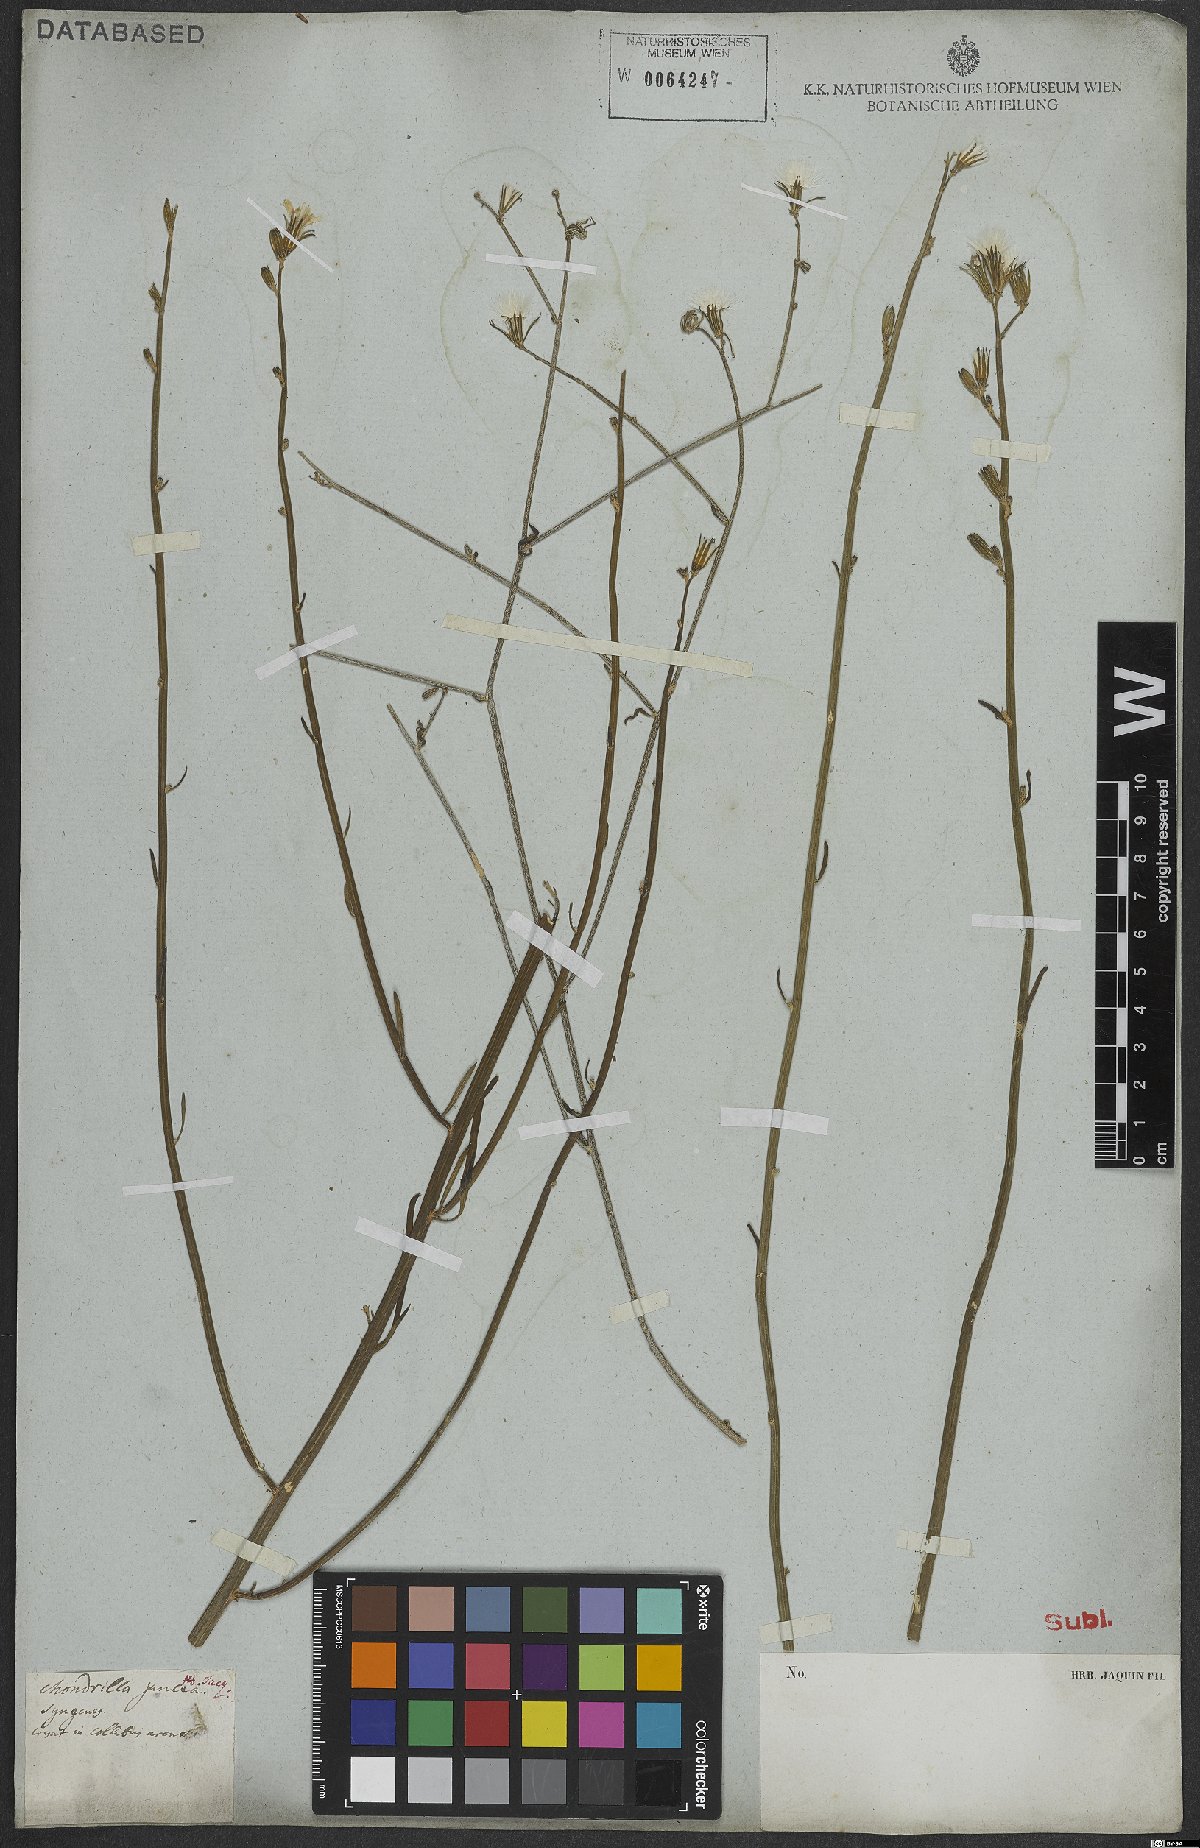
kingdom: Plantae
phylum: Tracheophyta
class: Magnoliopsida
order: Asterales
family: Asteraceae
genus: Chondrilla
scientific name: Chondrilla juncea
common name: Skeleton weed
